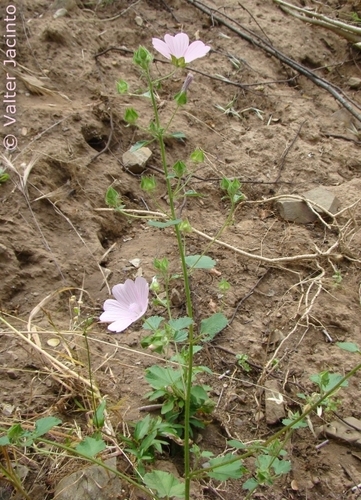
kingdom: Plantae
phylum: Tracheophyta
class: Magnoliopsida
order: Malvales
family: Malvaceae
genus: Malva
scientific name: Malva trimestris
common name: Royal mallow
